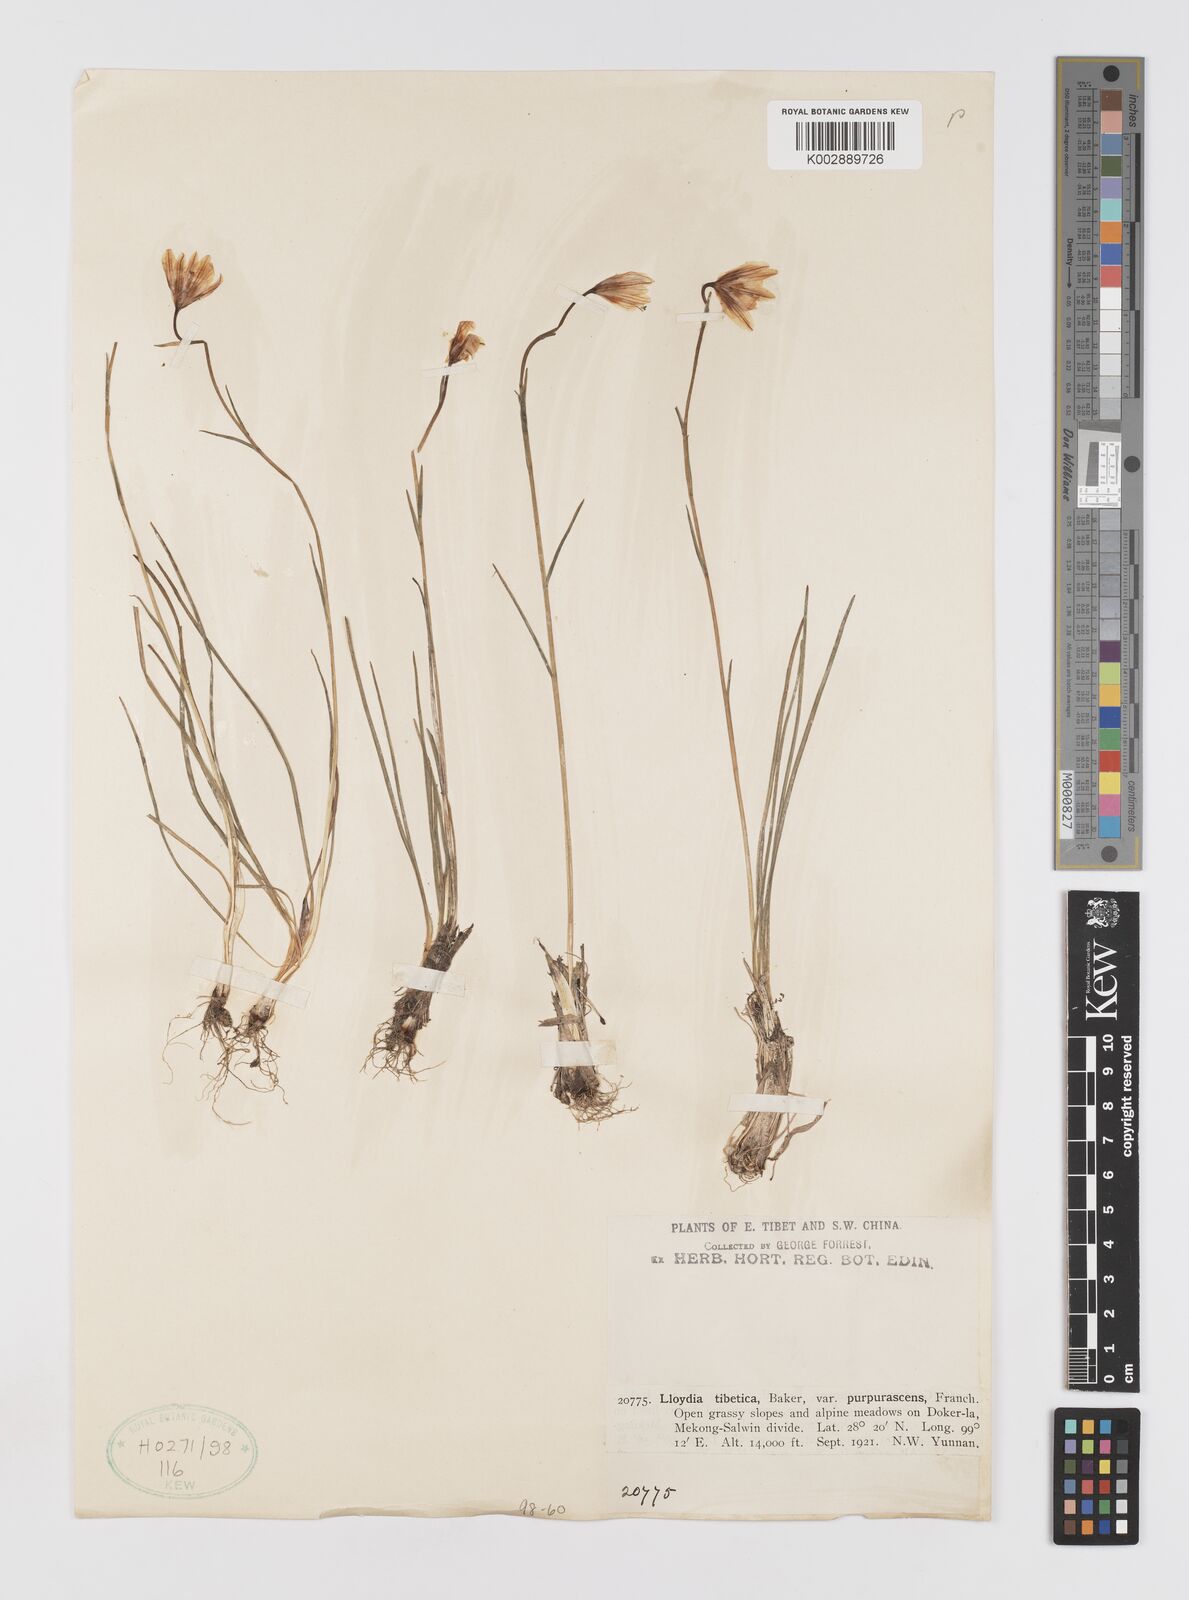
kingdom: Plantae
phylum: Tracheophyta
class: Liliopsida
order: Liliales
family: Liliaceae
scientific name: Liliaceae
